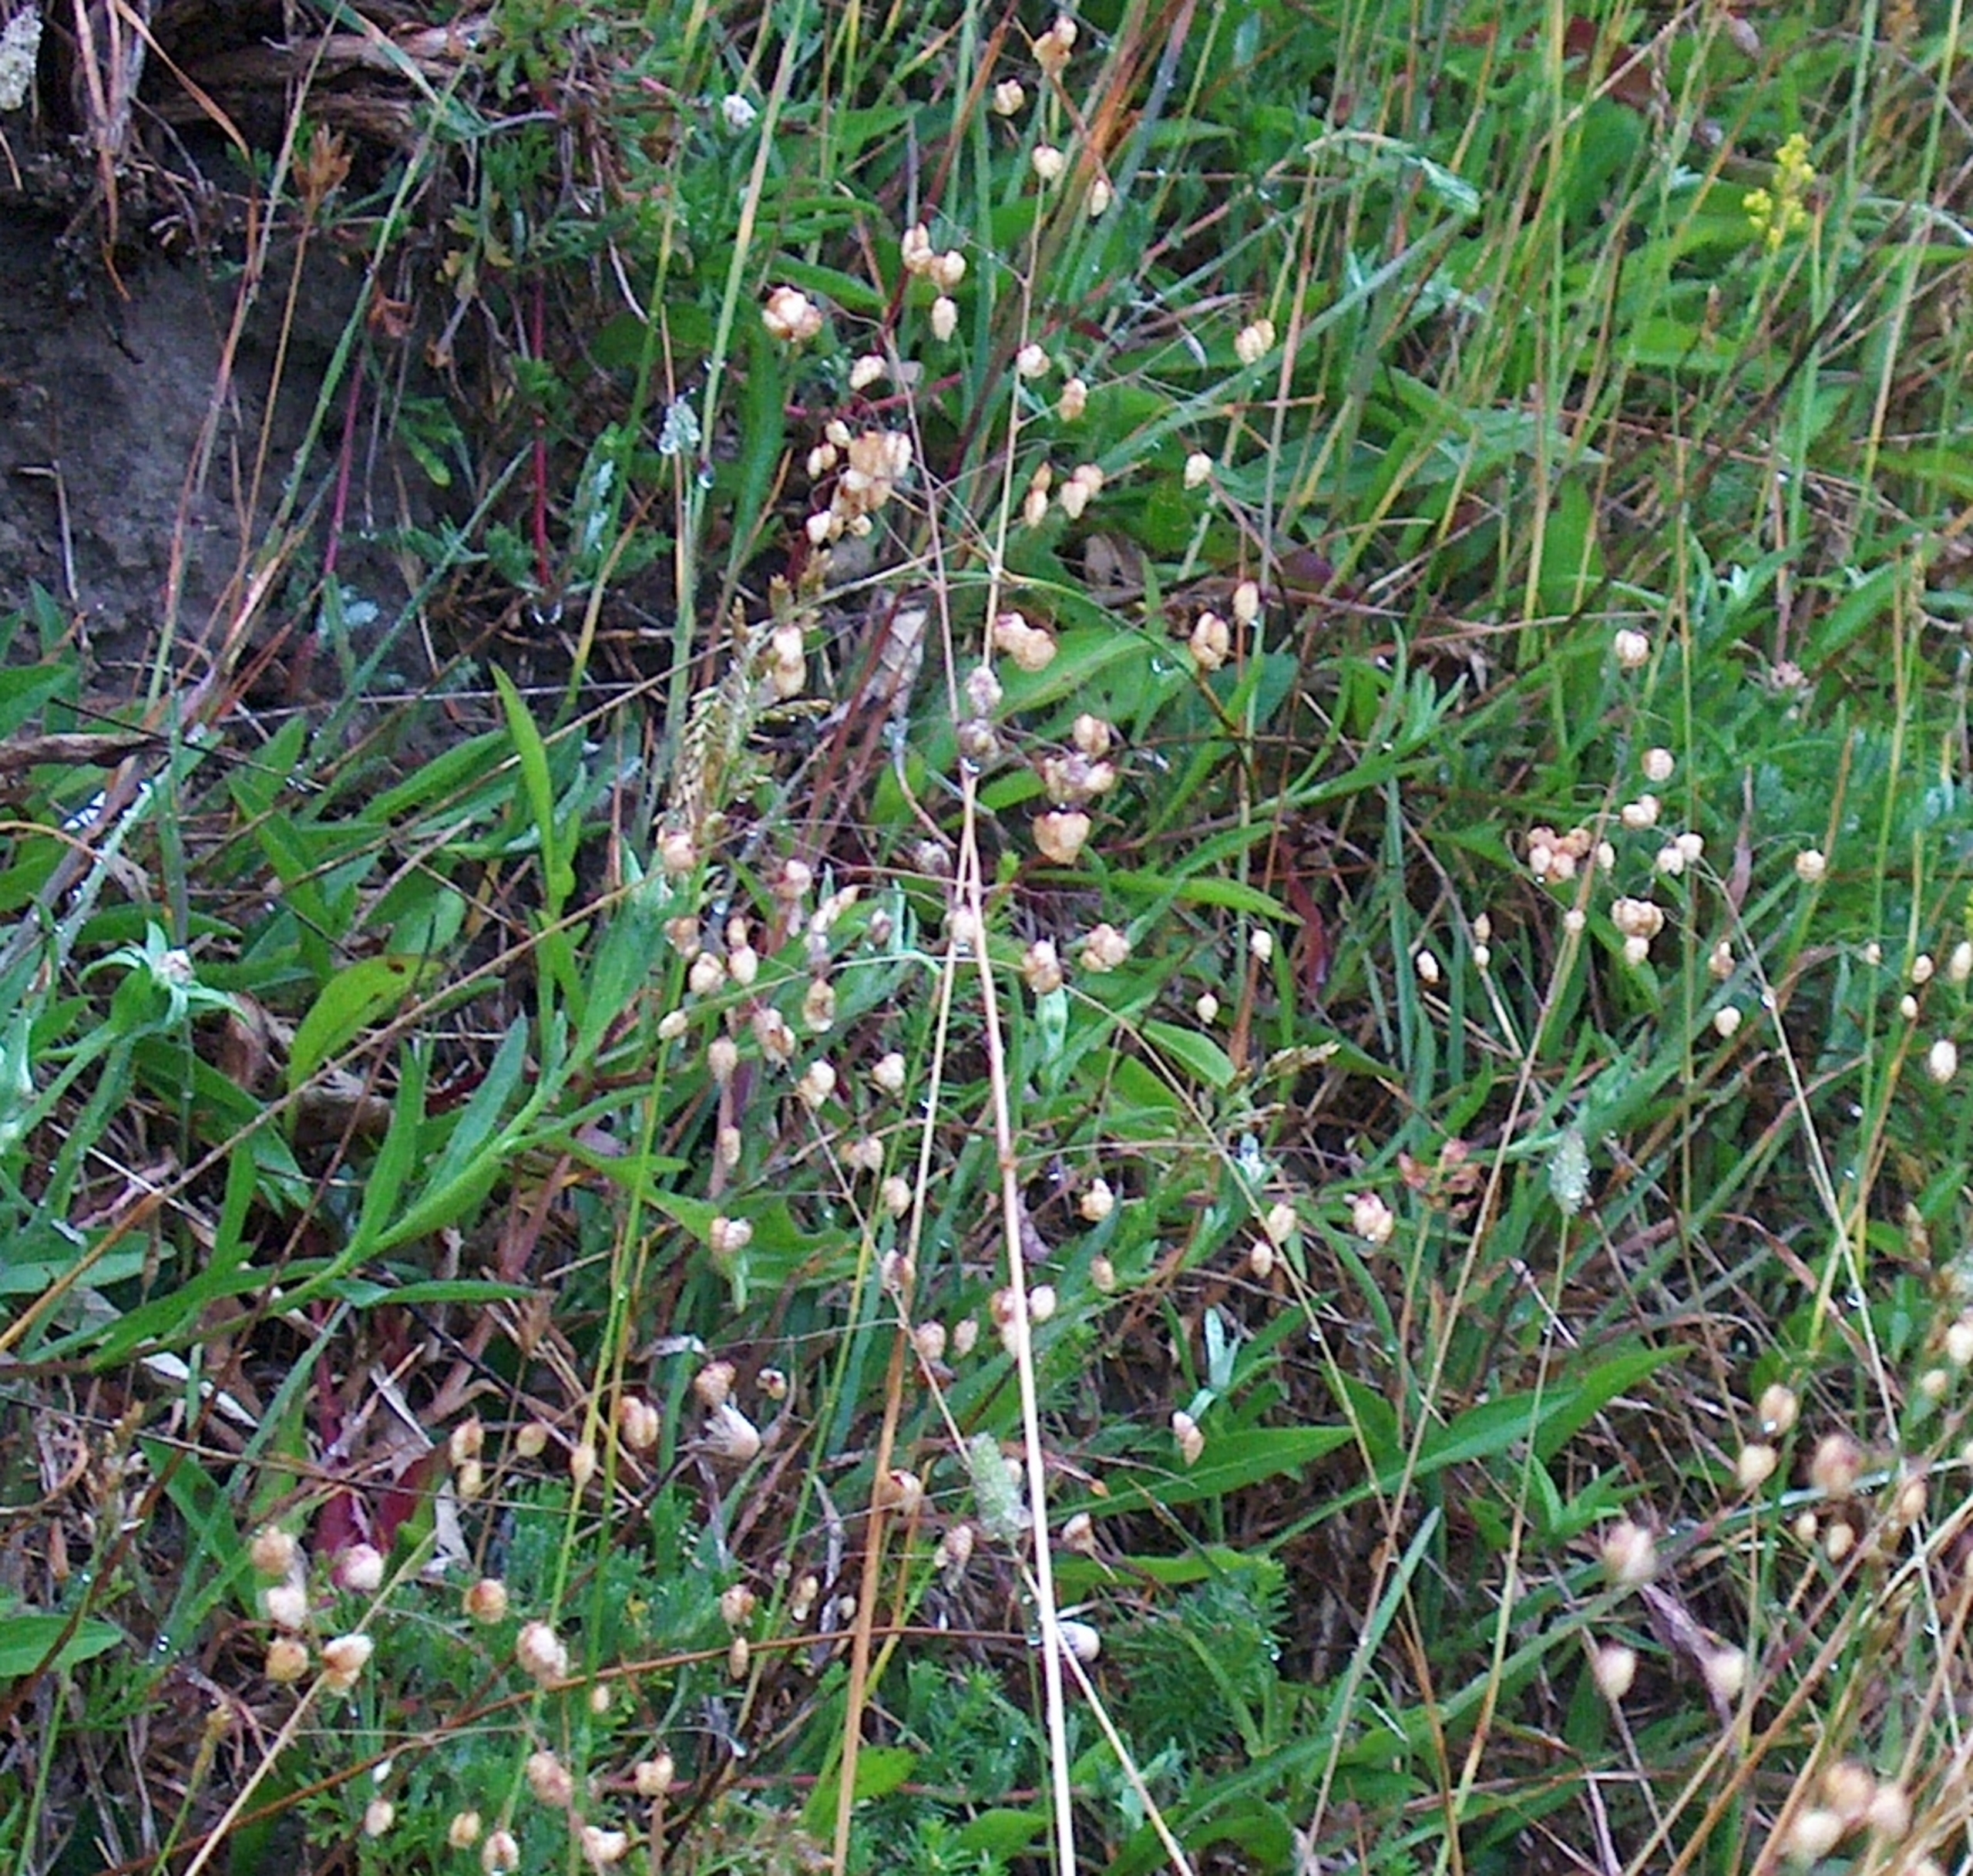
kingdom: Plantae
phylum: Tracheophyta
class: Liliopsida
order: Poales
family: Poaceae
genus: Briza
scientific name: Briza media
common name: Hjertegræs
